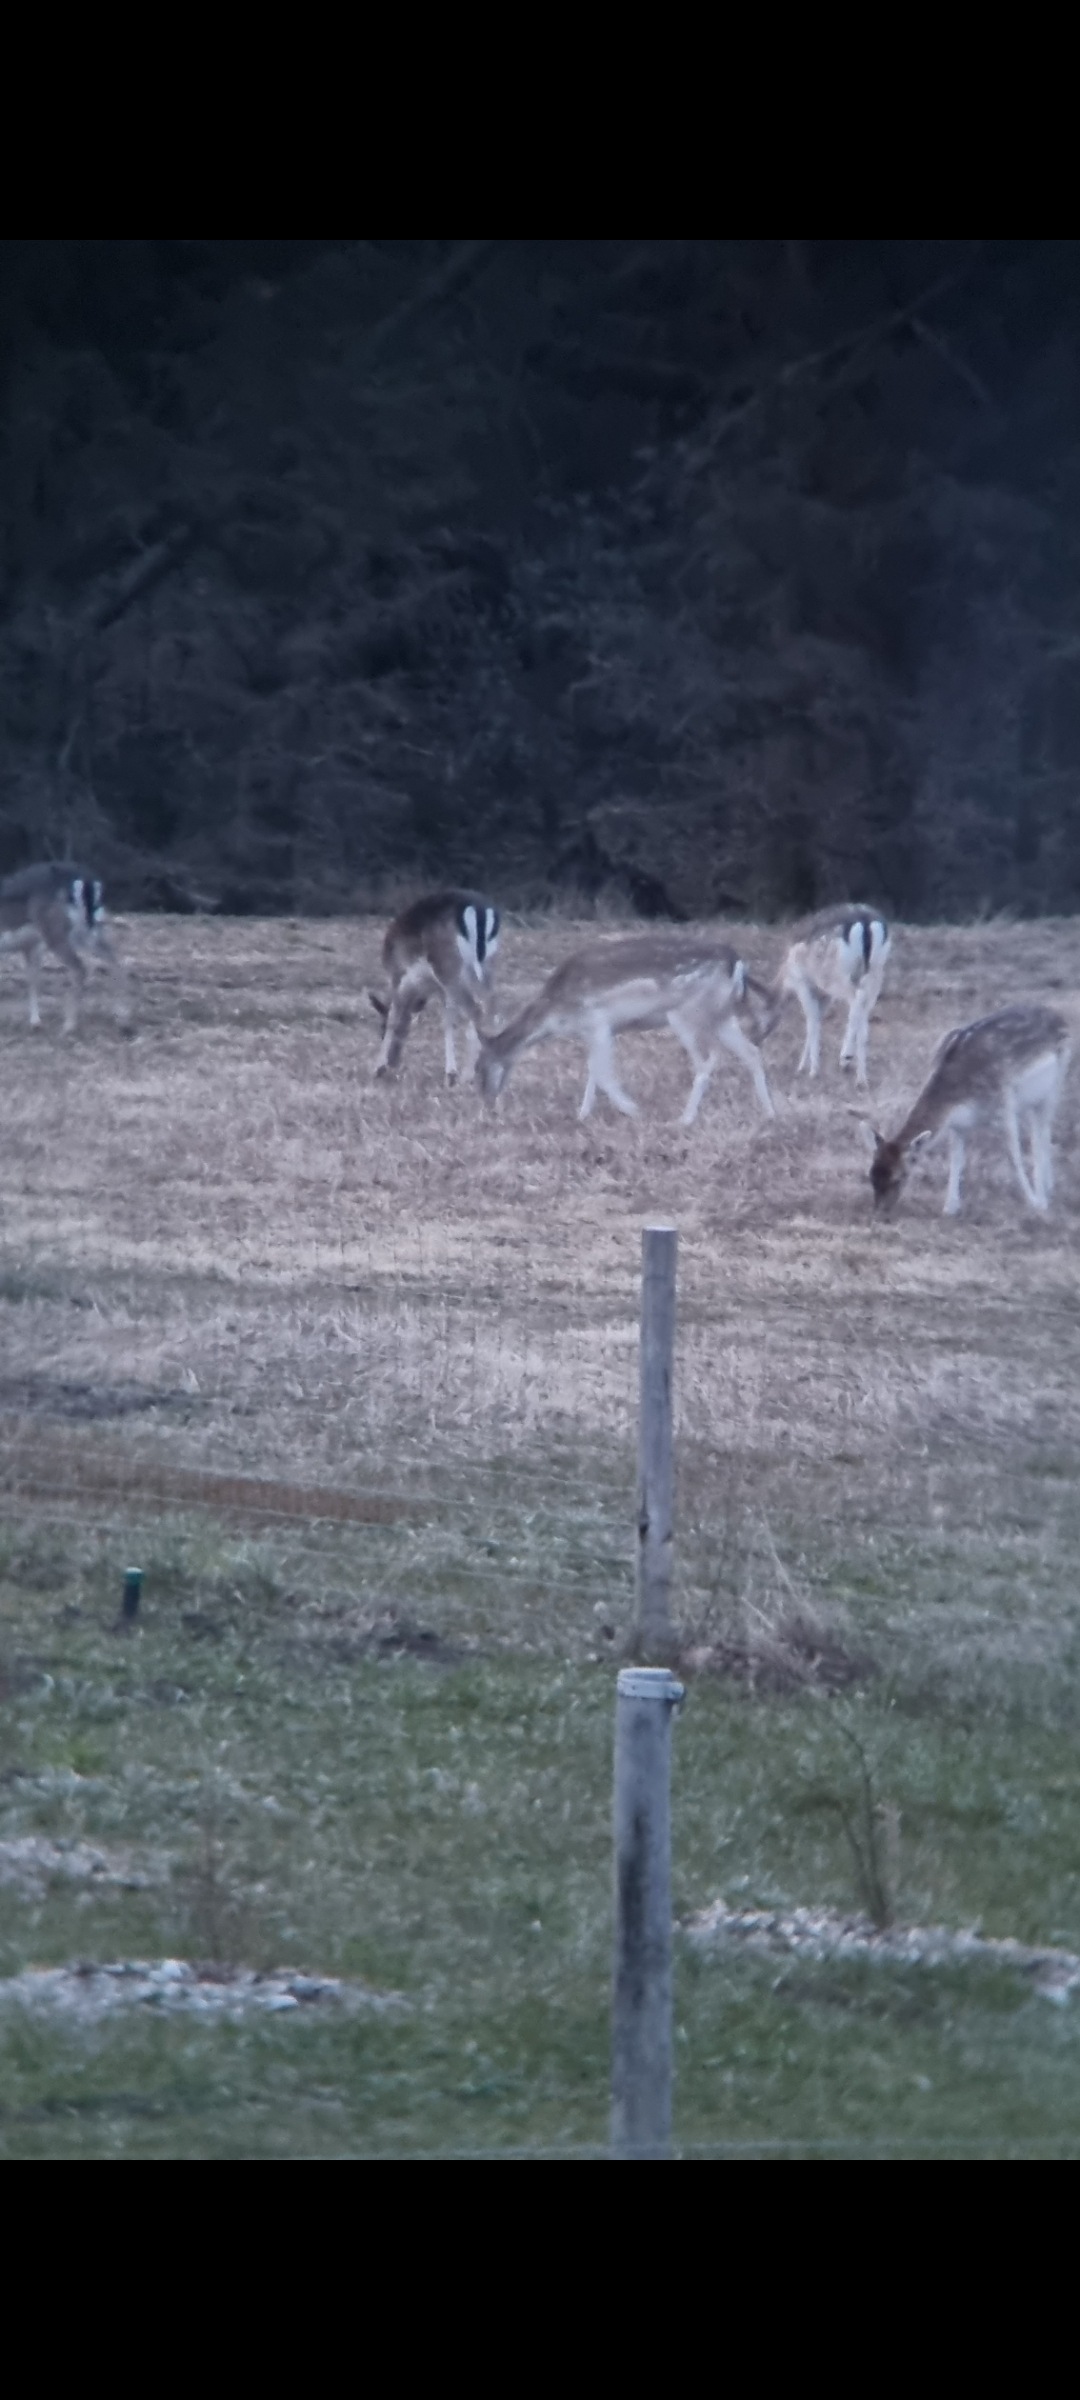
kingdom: Animalia
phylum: Chordata
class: Mammalia
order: Artiodactyla
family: Cervidae
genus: Dama
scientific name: Dama dama
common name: Dådyr
